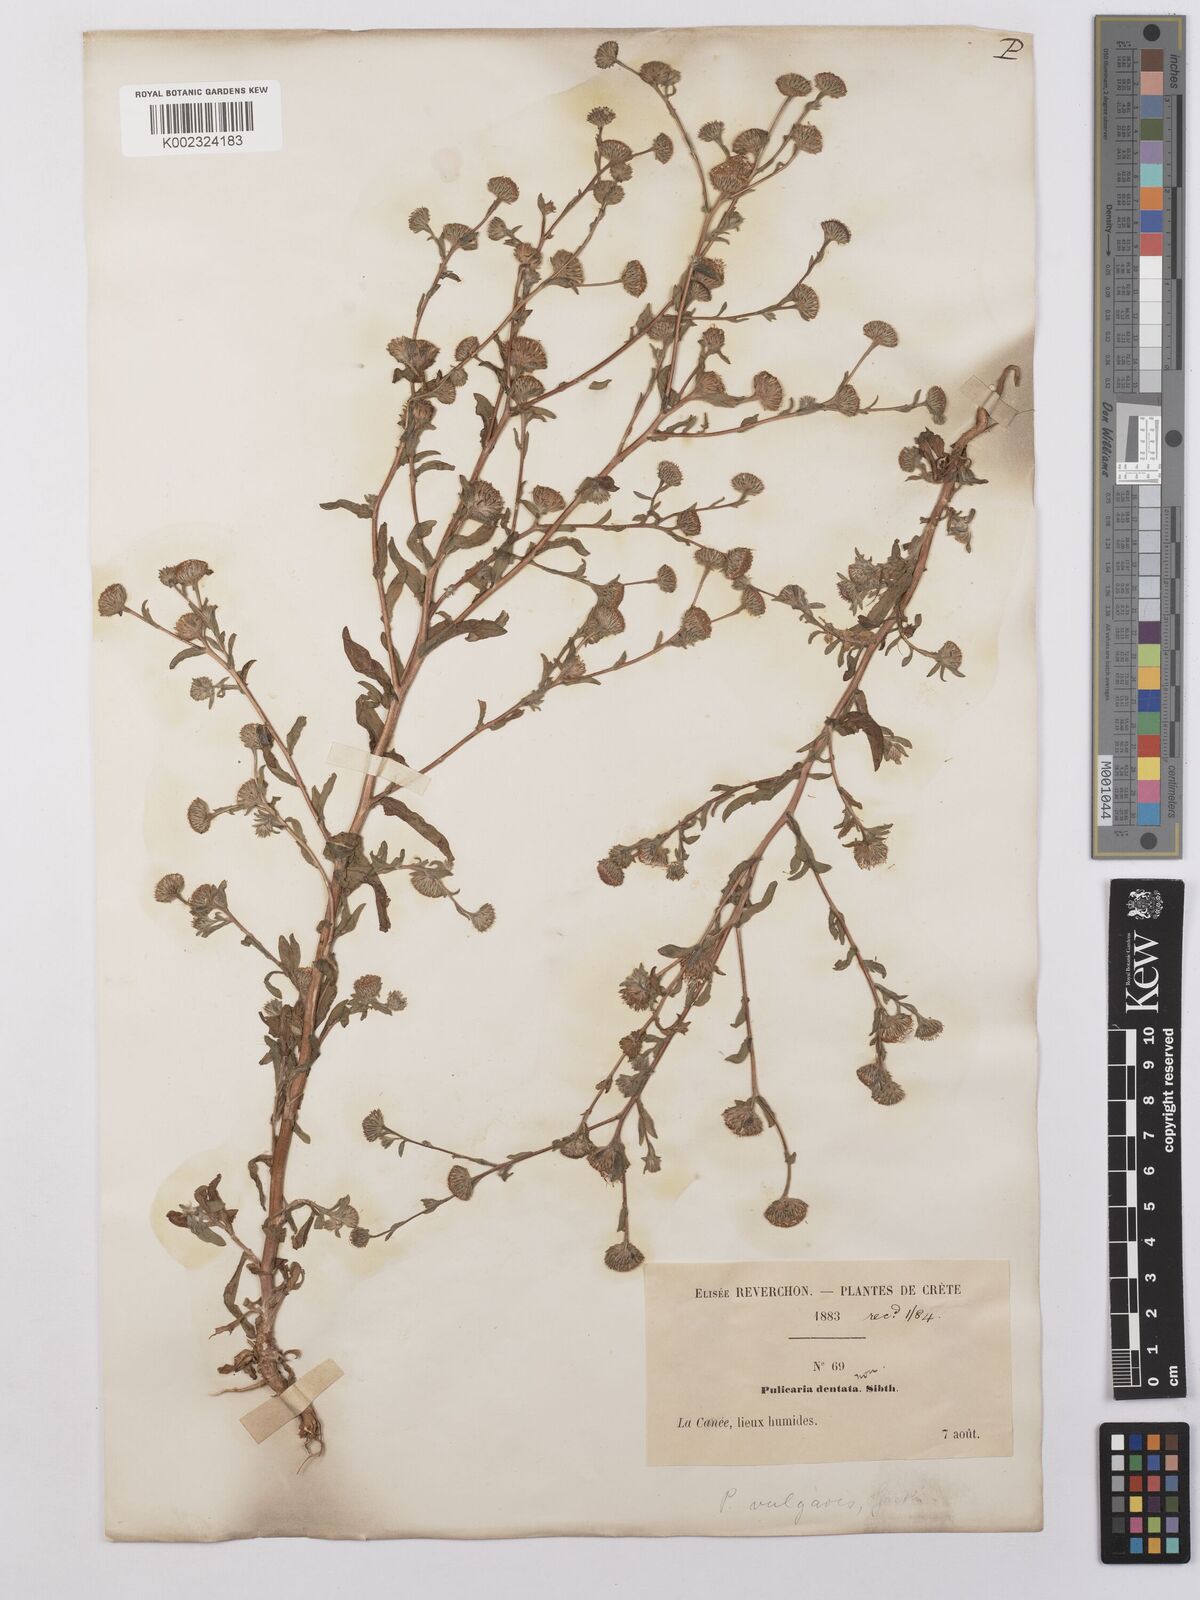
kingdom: Plantae
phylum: Tracheophyta
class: Magnoliopsida
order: Asterales
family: Asteraceae
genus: Pulicaria
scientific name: Pulicaria arabica
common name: Ladies' false fleabane
